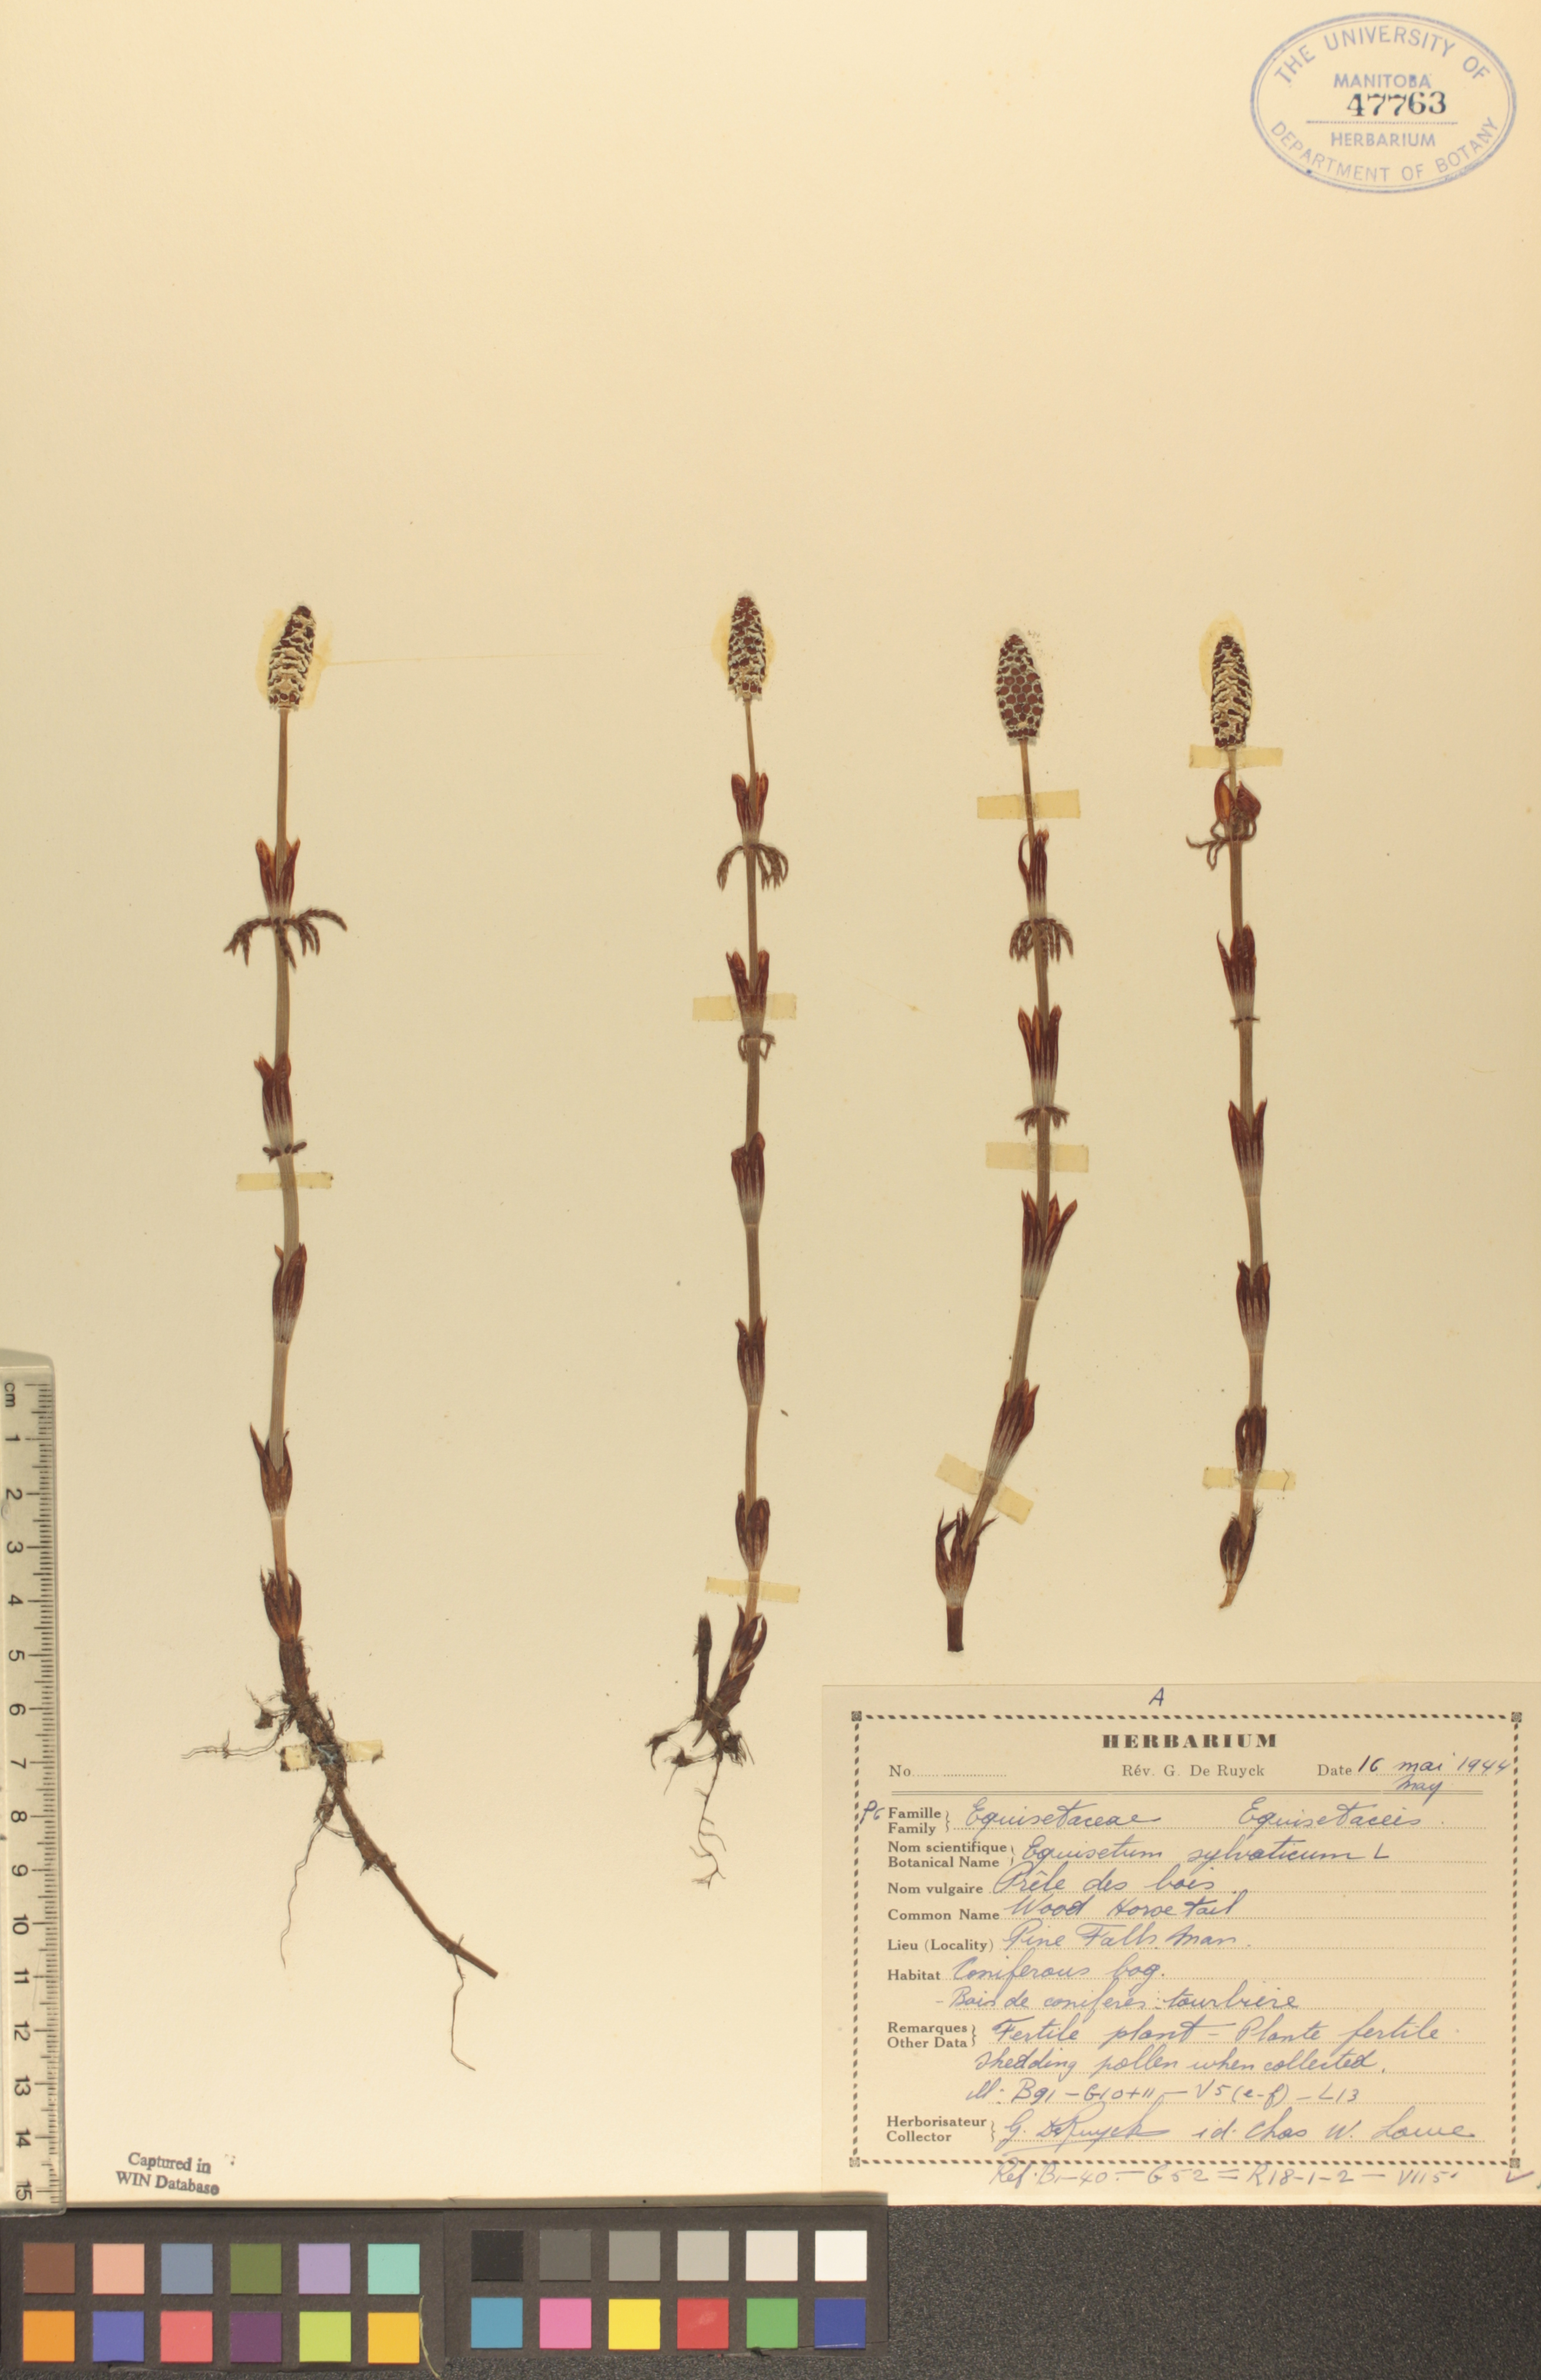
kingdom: Plantae
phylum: Tracheophyta
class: Polypodiopsida
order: Equisetales
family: Equisetaceae
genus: Equisetum
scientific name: Equisetum sylvaticum
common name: Wood horsetail
